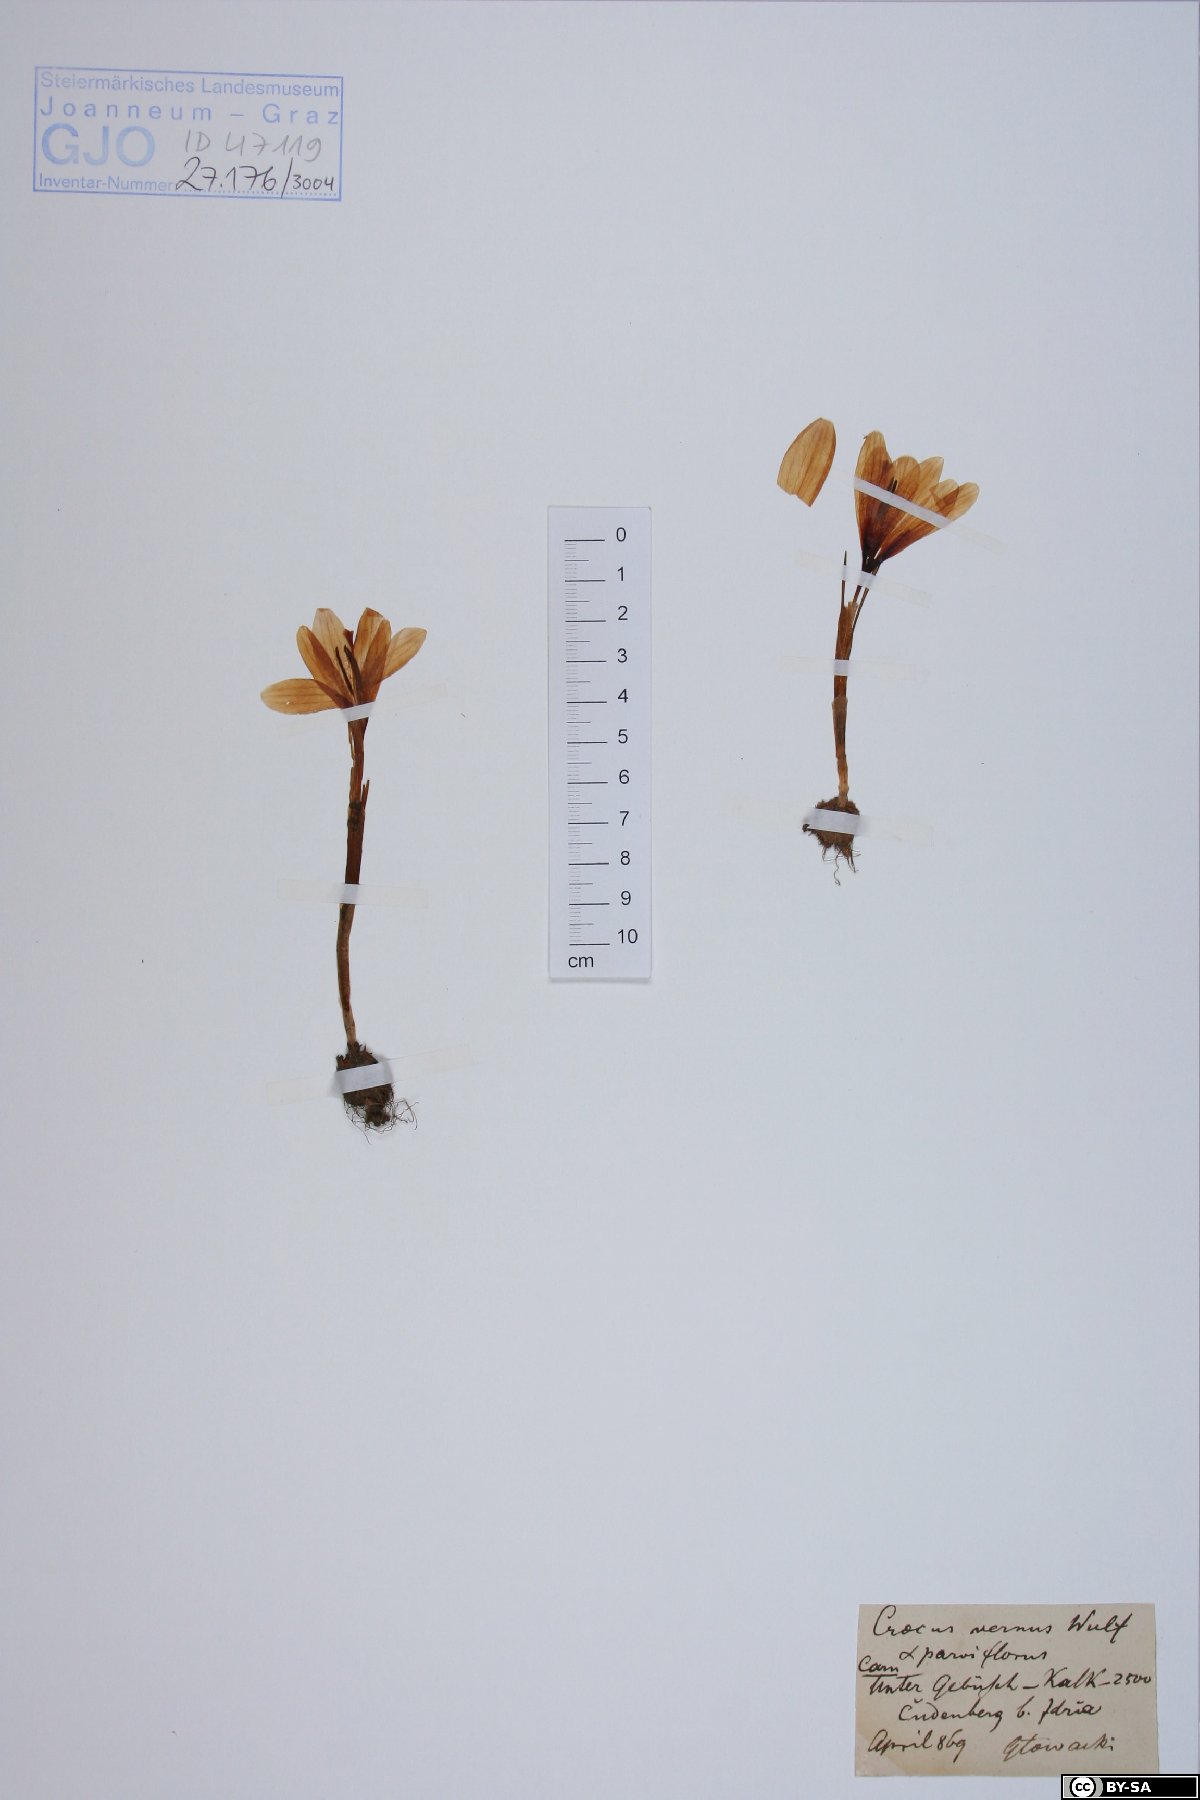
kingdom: Plantae
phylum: Tracheophyta
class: Liliopsida
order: Asparagales
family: Iridaceae
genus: Crocus
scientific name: Crocus vernus
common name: Spring crocus
